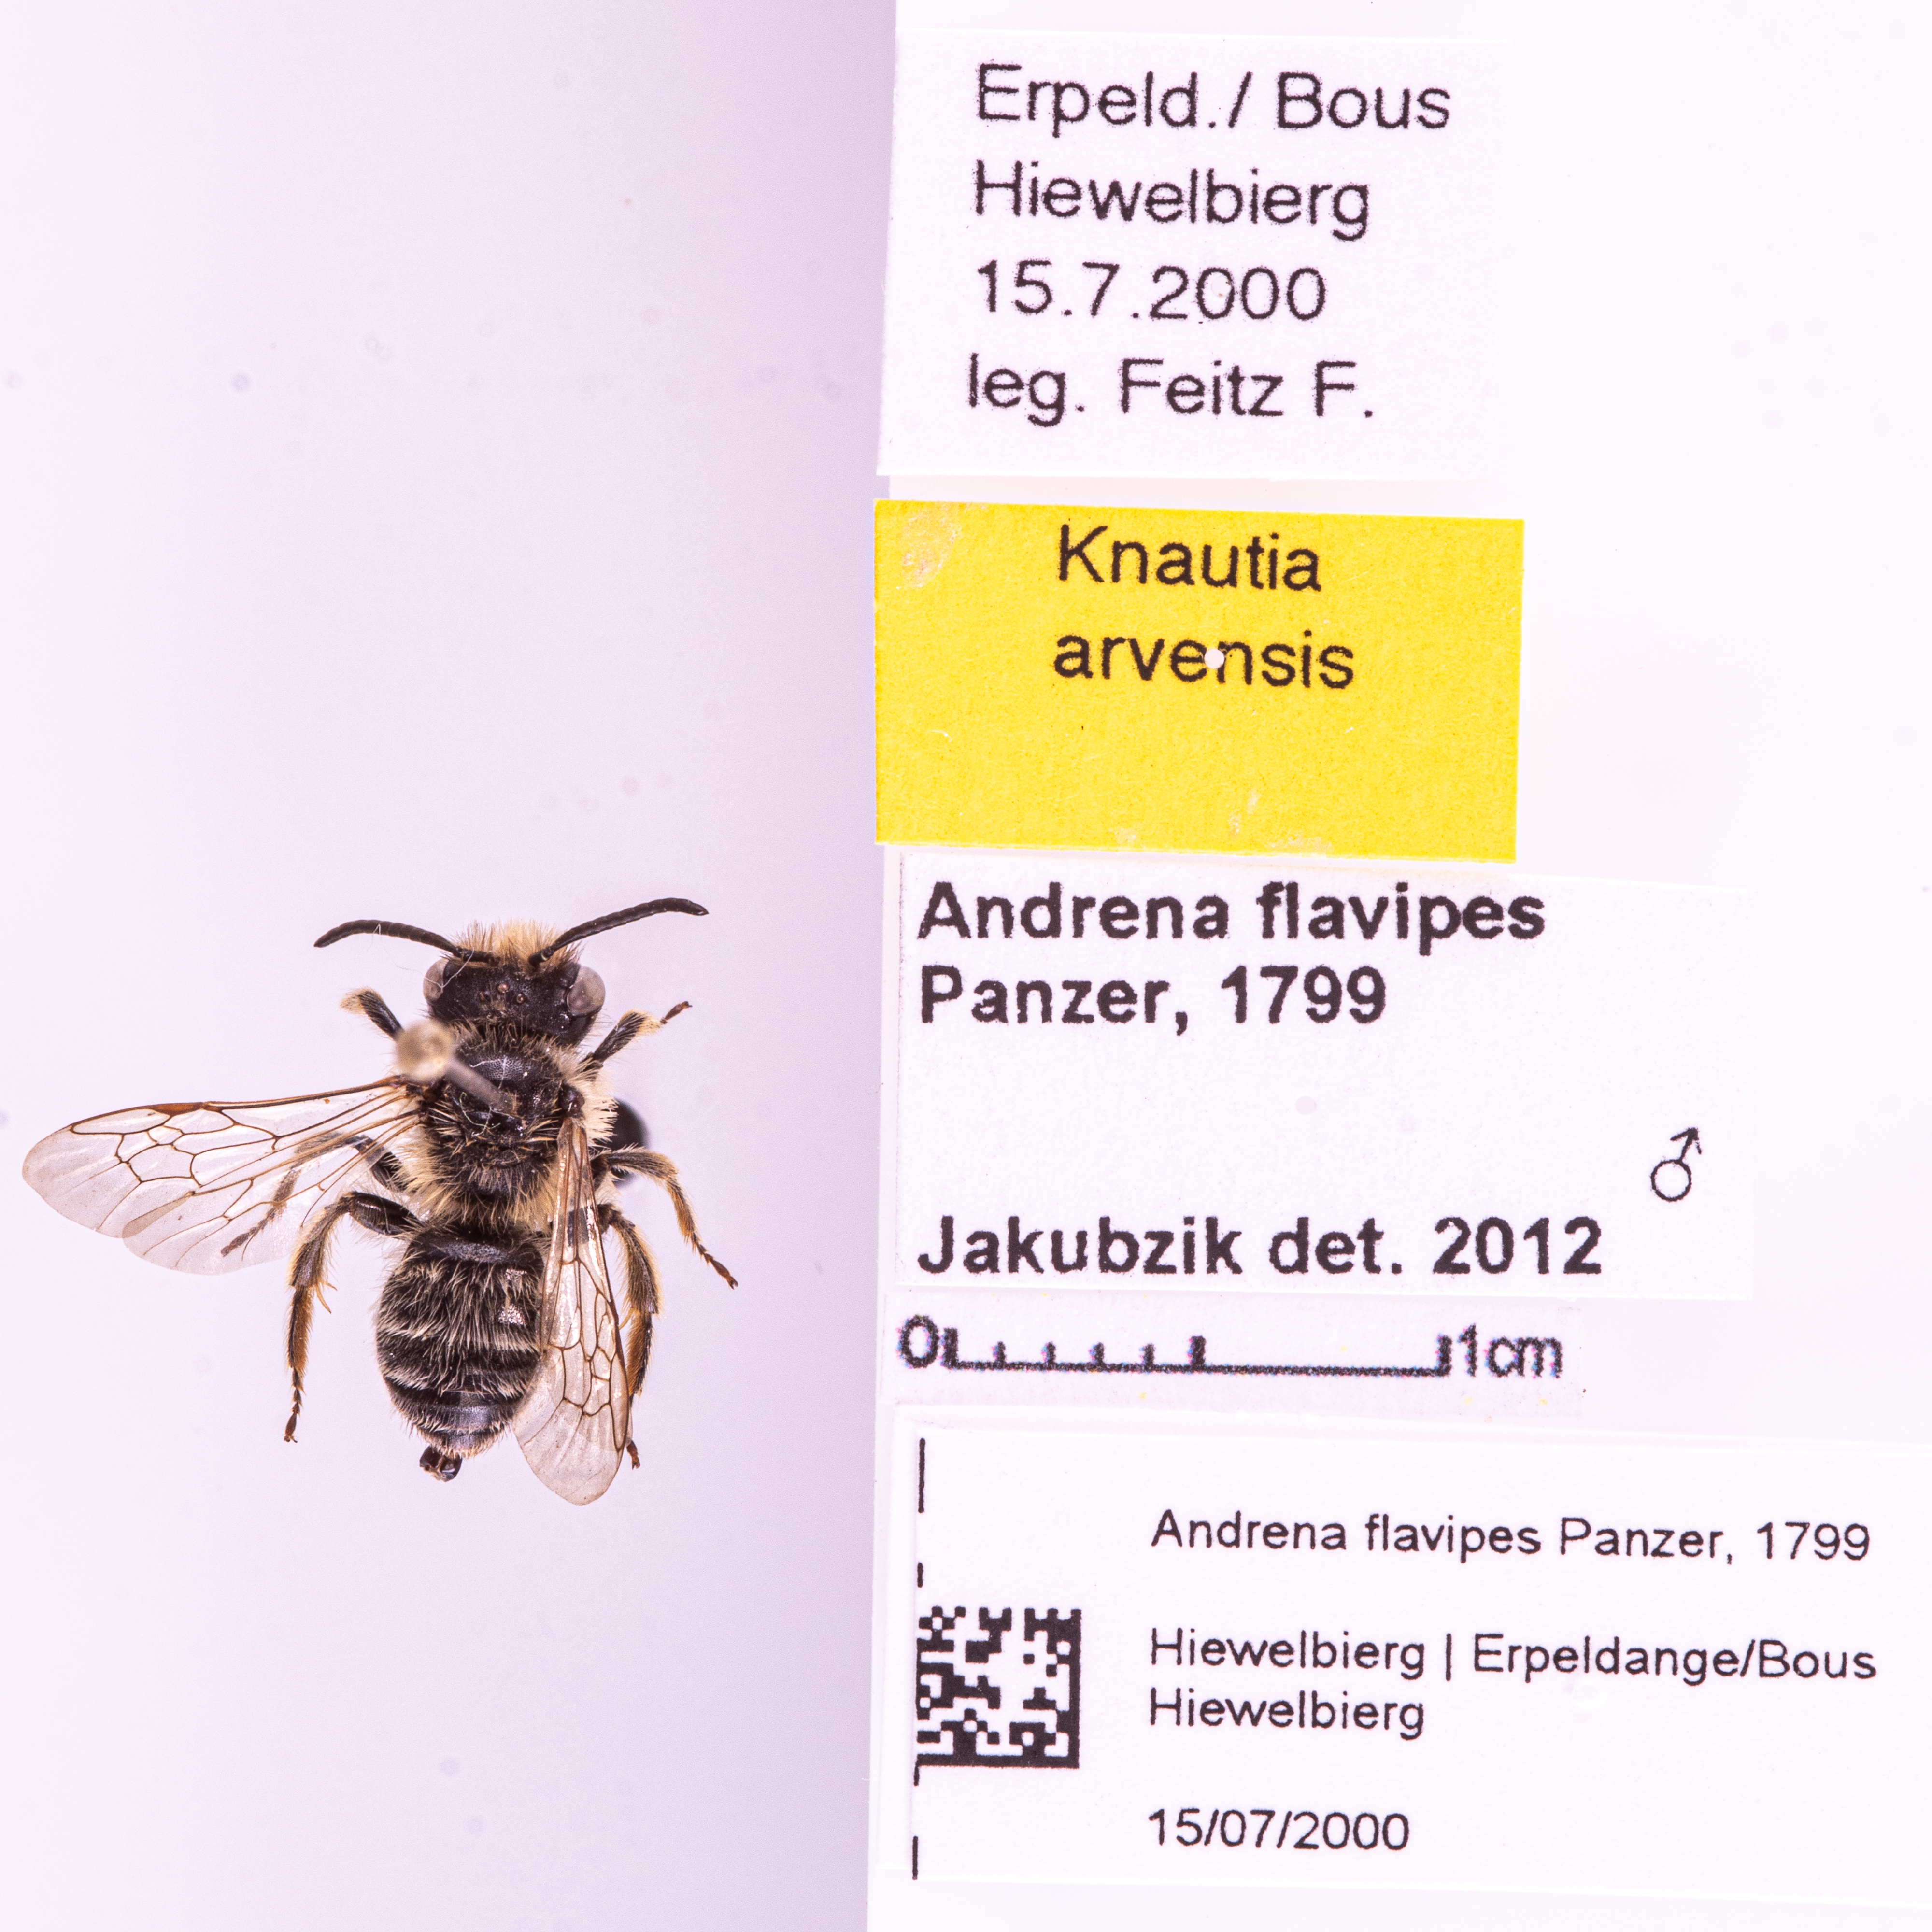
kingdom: Animalia
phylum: Arthropoda
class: Insecta
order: Hymenoptera
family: Andrenidae
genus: Andrena
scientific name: Andrena flavipes
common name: Yellow-legged mining bee
